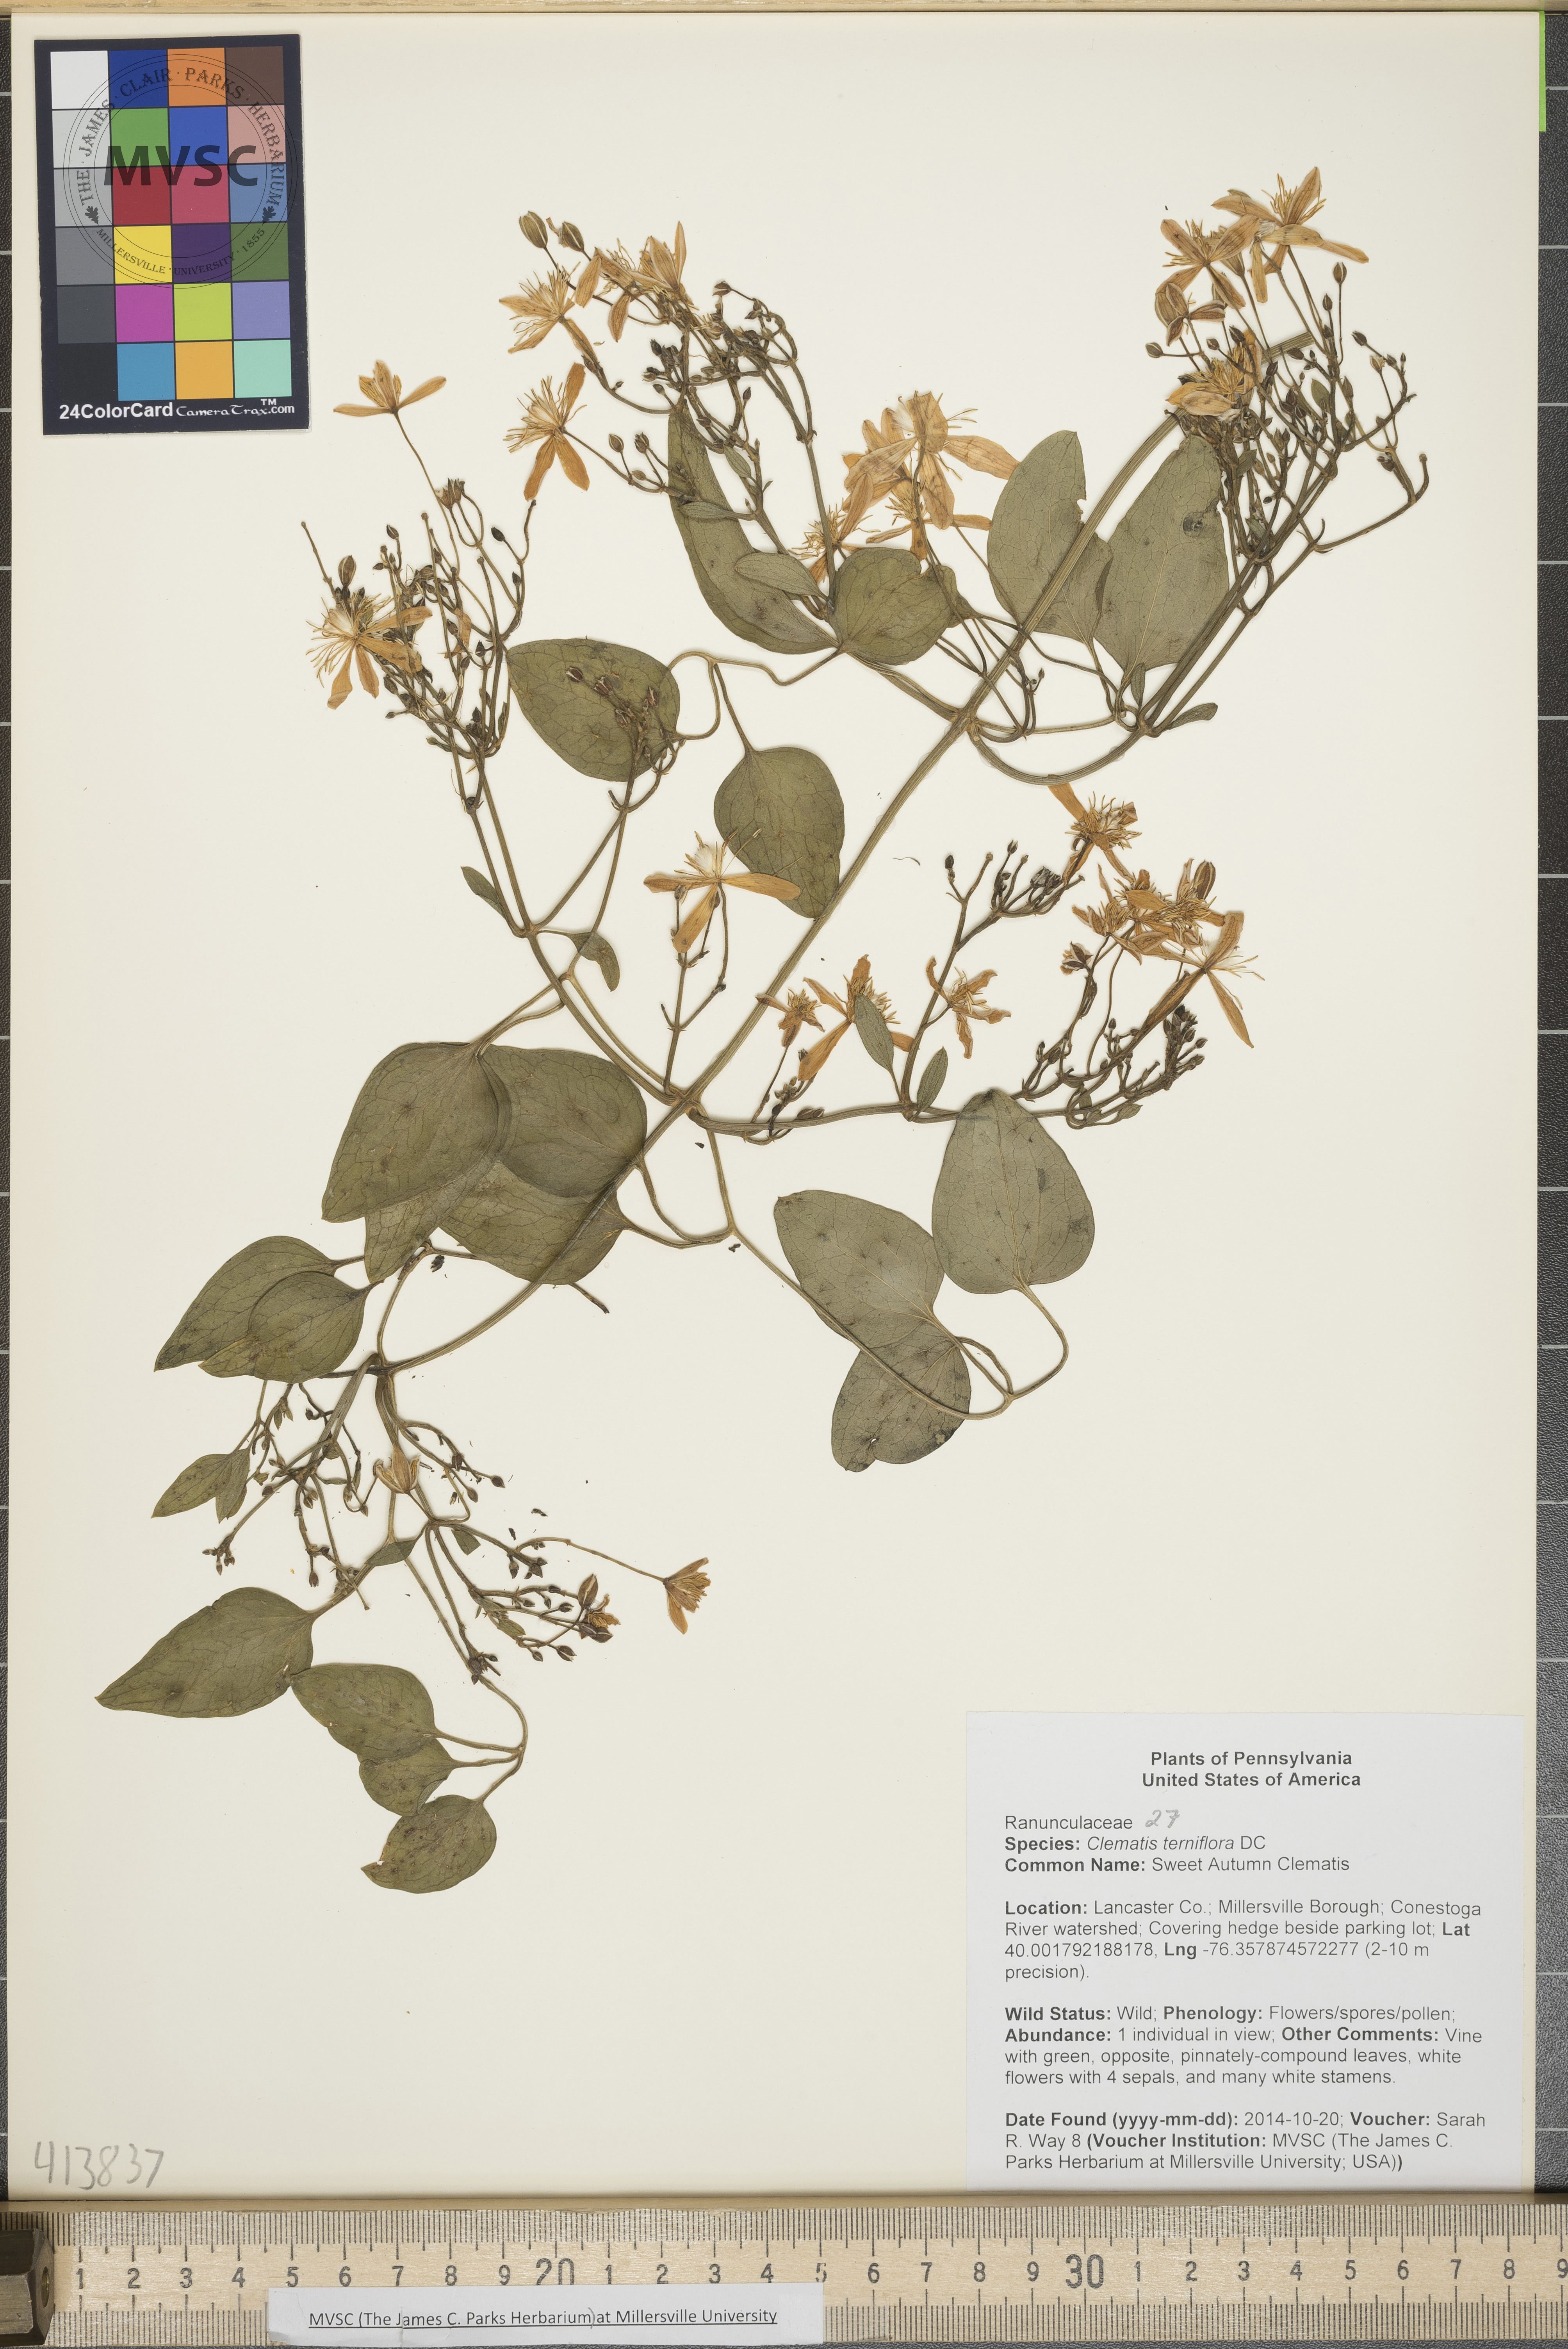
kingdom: Plantae
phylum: Tracheophyta
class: Magnoliopsida
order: Ranunculales
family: Ranunculaceae
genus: Clematis
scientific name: Clematis terniflora
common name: Sweet Autumn Clematis
